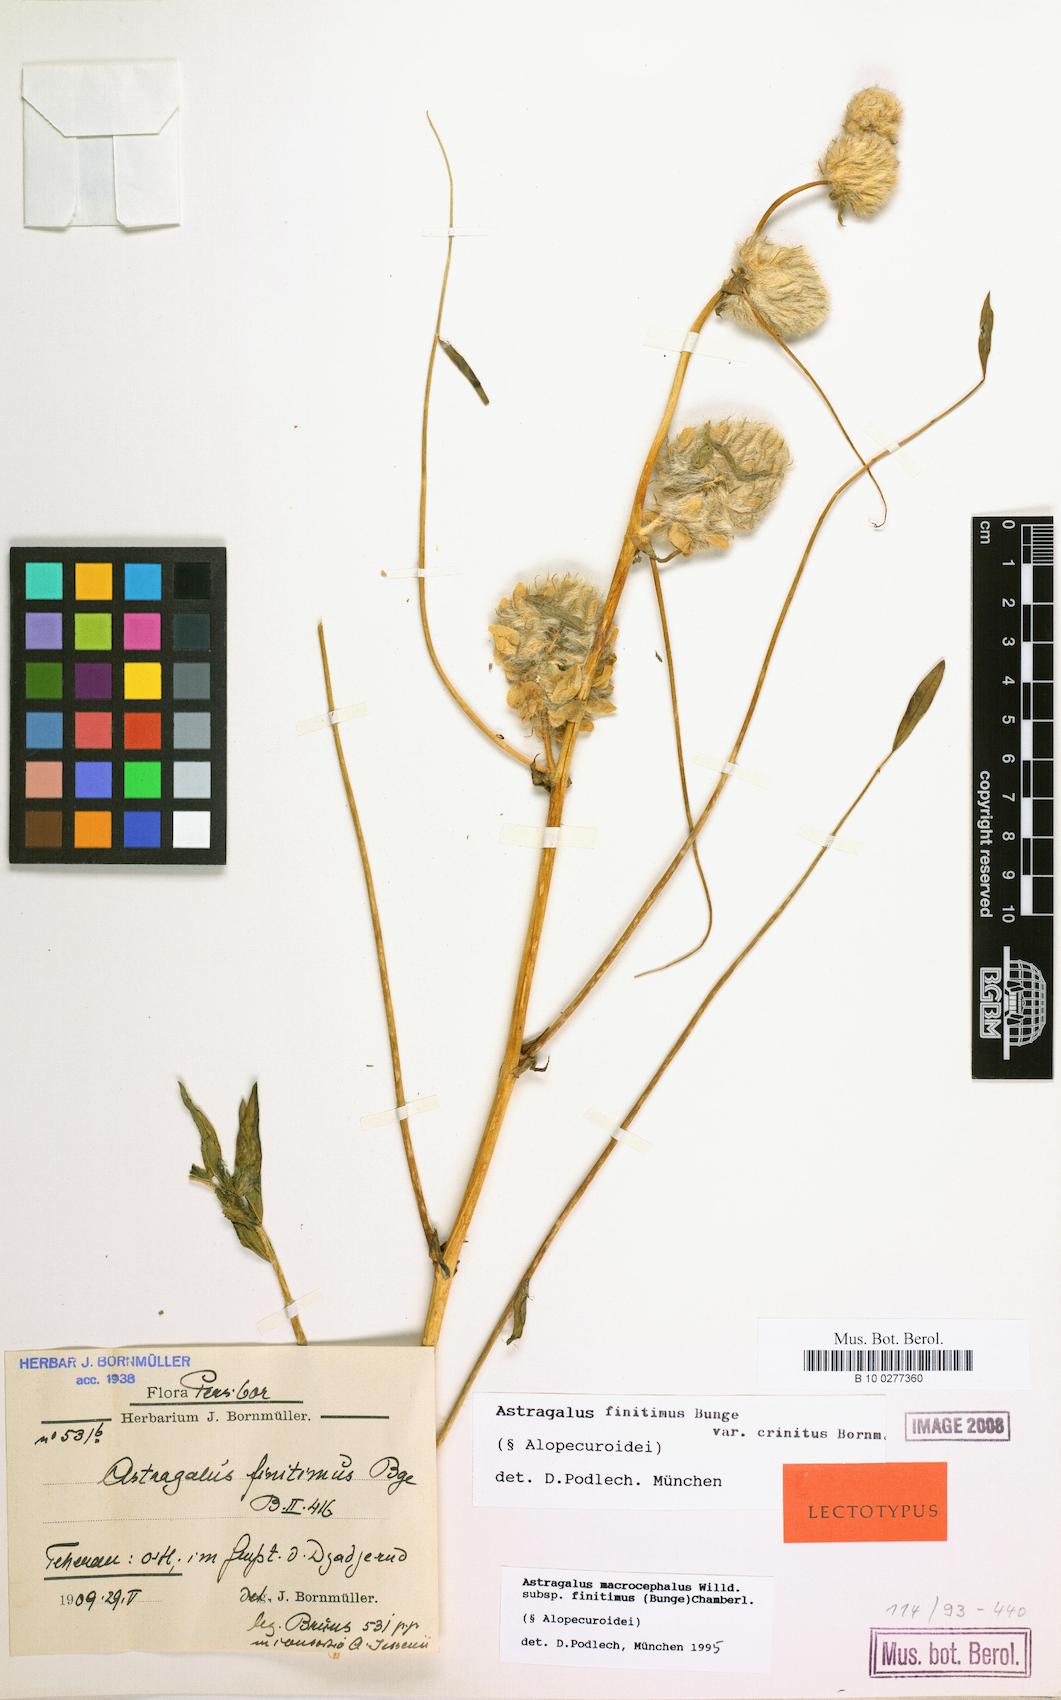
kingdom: Plantae
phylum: Tracheophyta
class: Magnoliopsida
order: Fabales
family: Fabaceae
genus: Astragalus
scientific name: Astragalus macrocephalus
